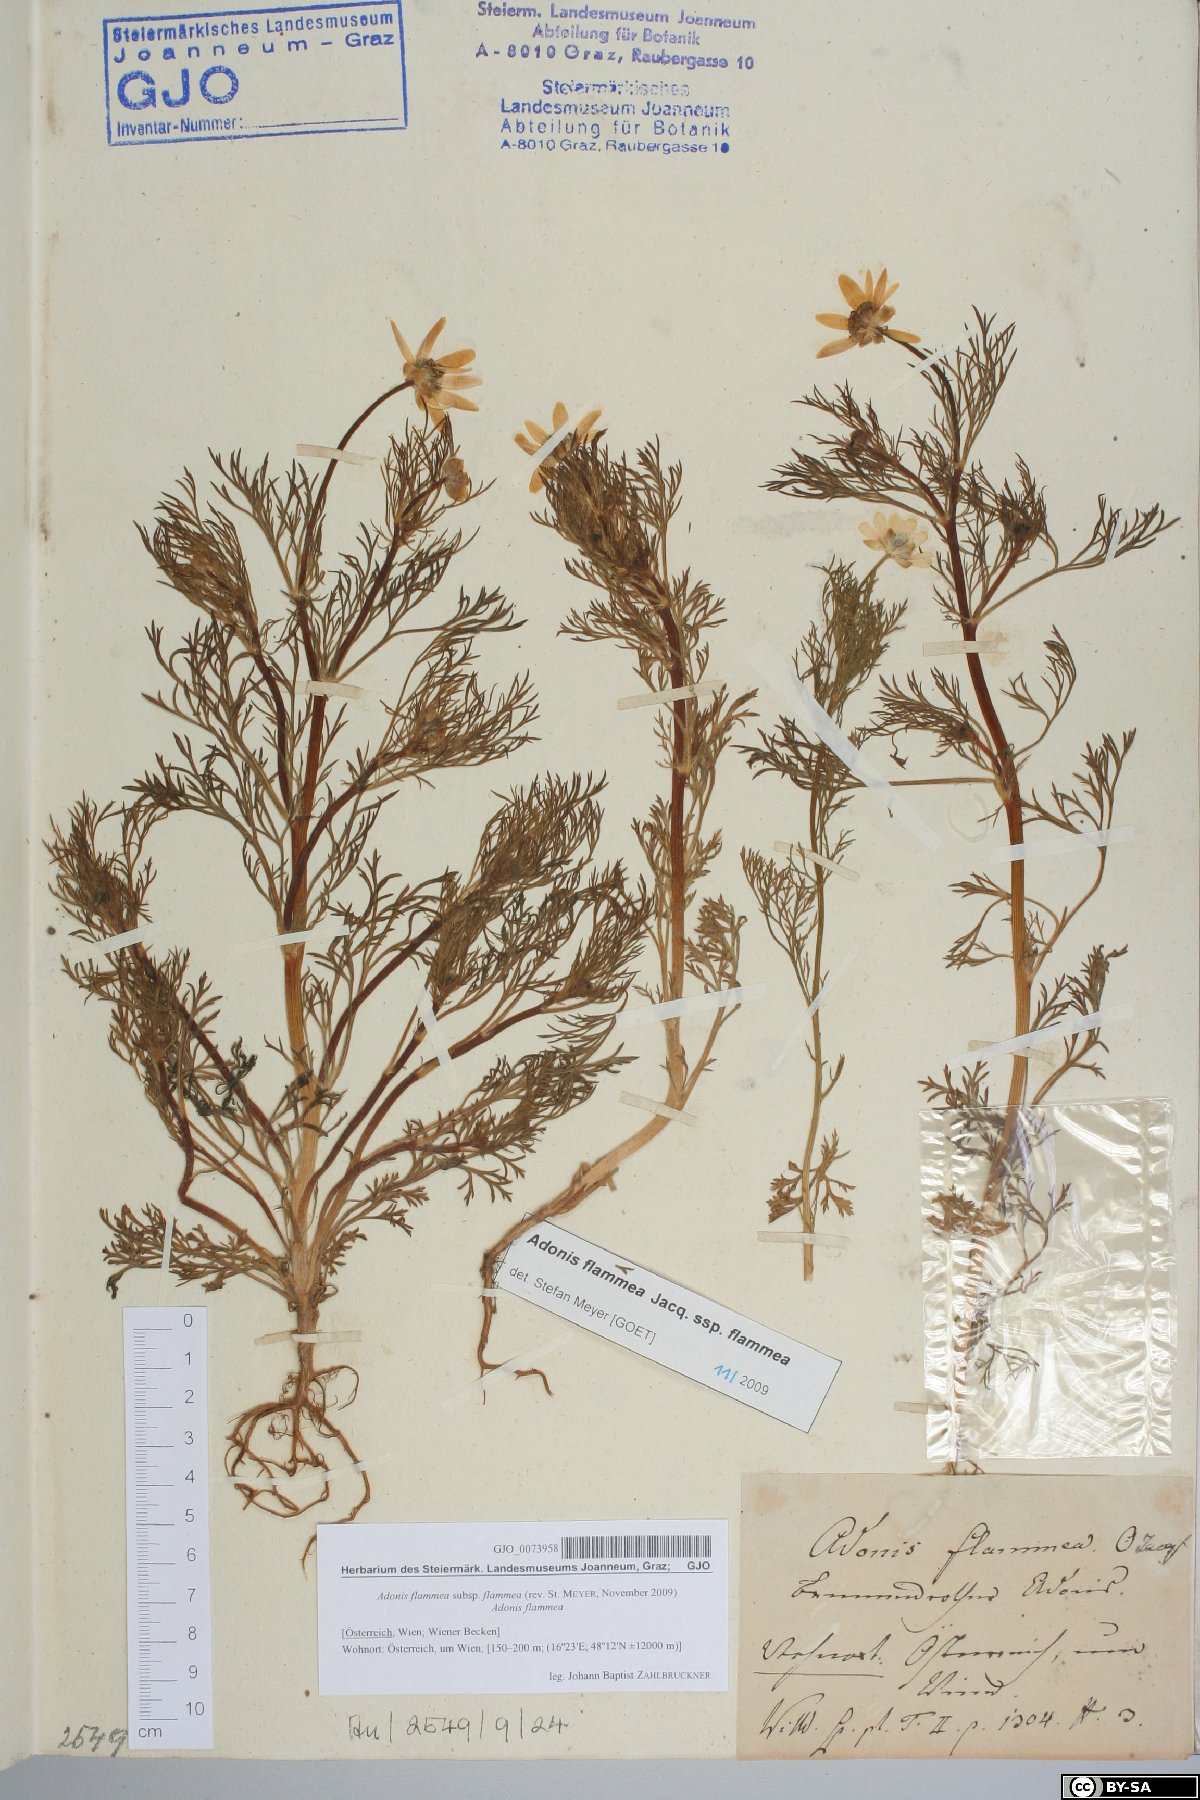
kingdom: Plantae
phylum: Tracheophyta
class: Magnoliopsida
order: Ranunculales
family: Ranunculaceae
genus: Adonis
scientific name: Adonis flammea
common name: Large pheasant's-eye
